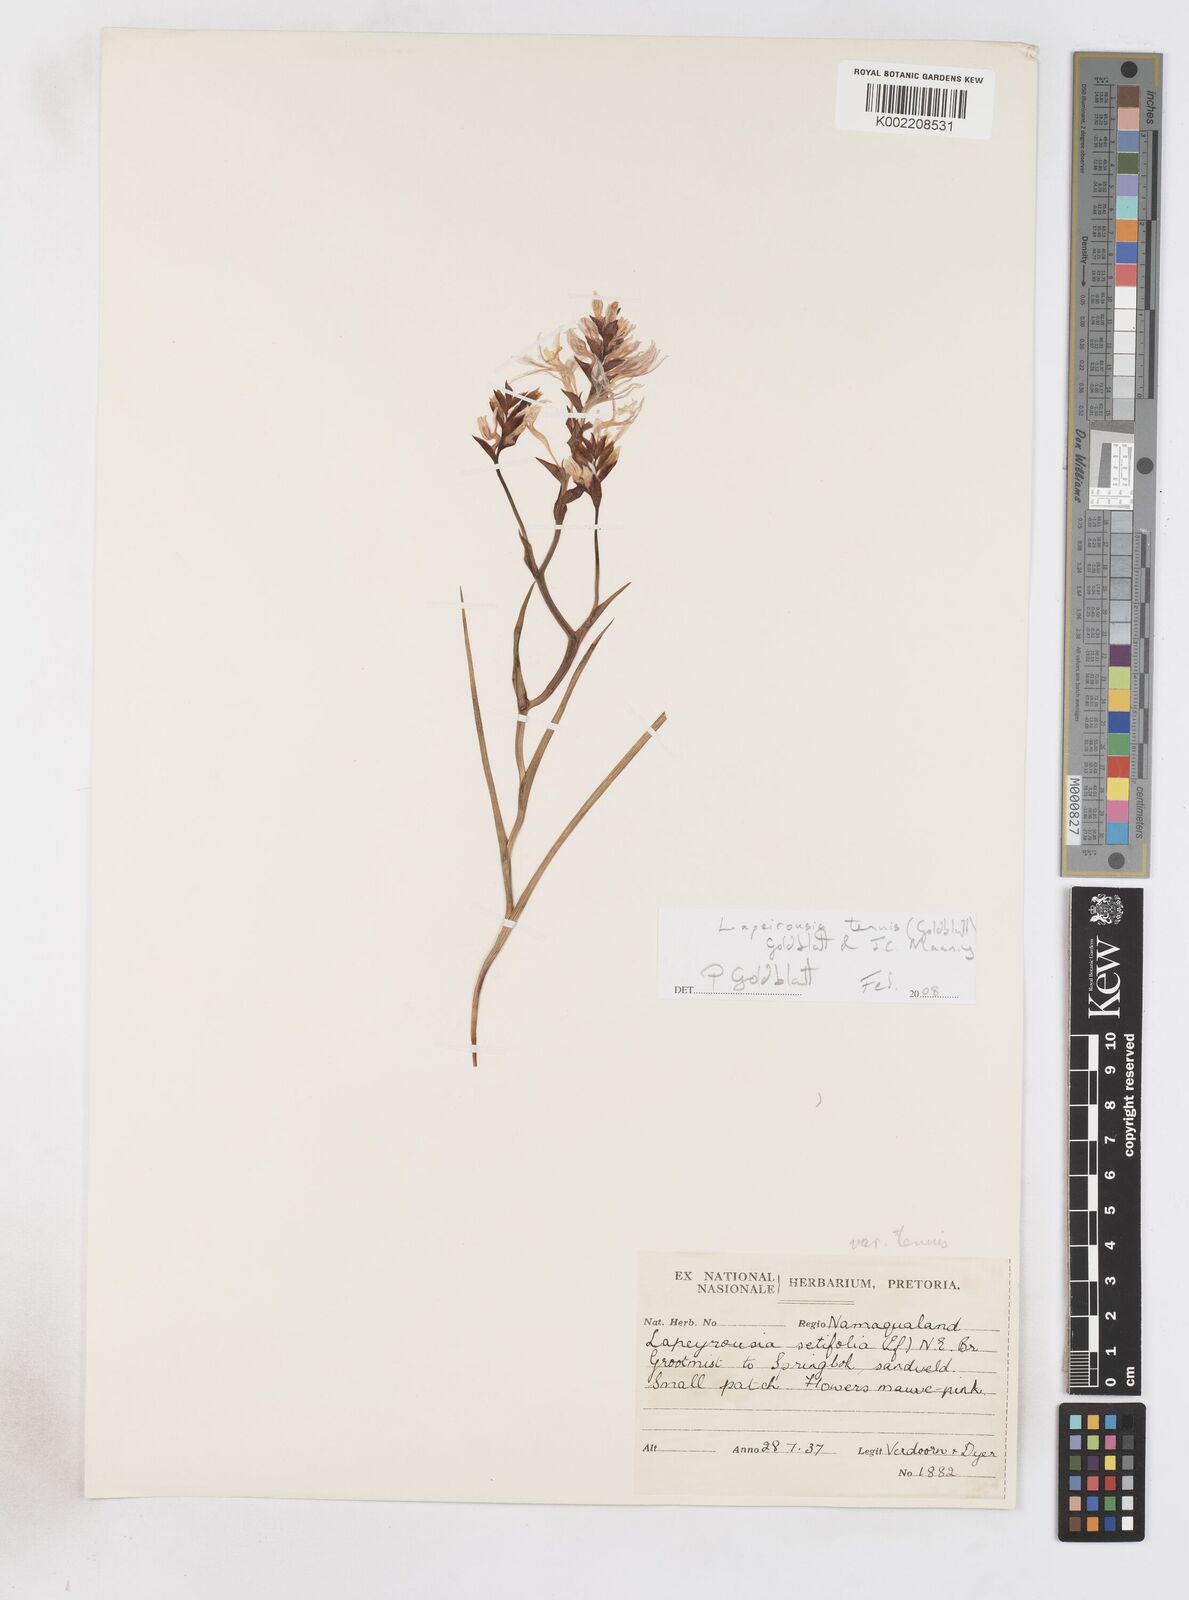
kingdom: Plantae
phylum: Tracheophyta
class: Liliopsida
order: Asparagales
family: Iridaceae
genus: Lapeirousia
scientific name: Lapeirousia tenuis
